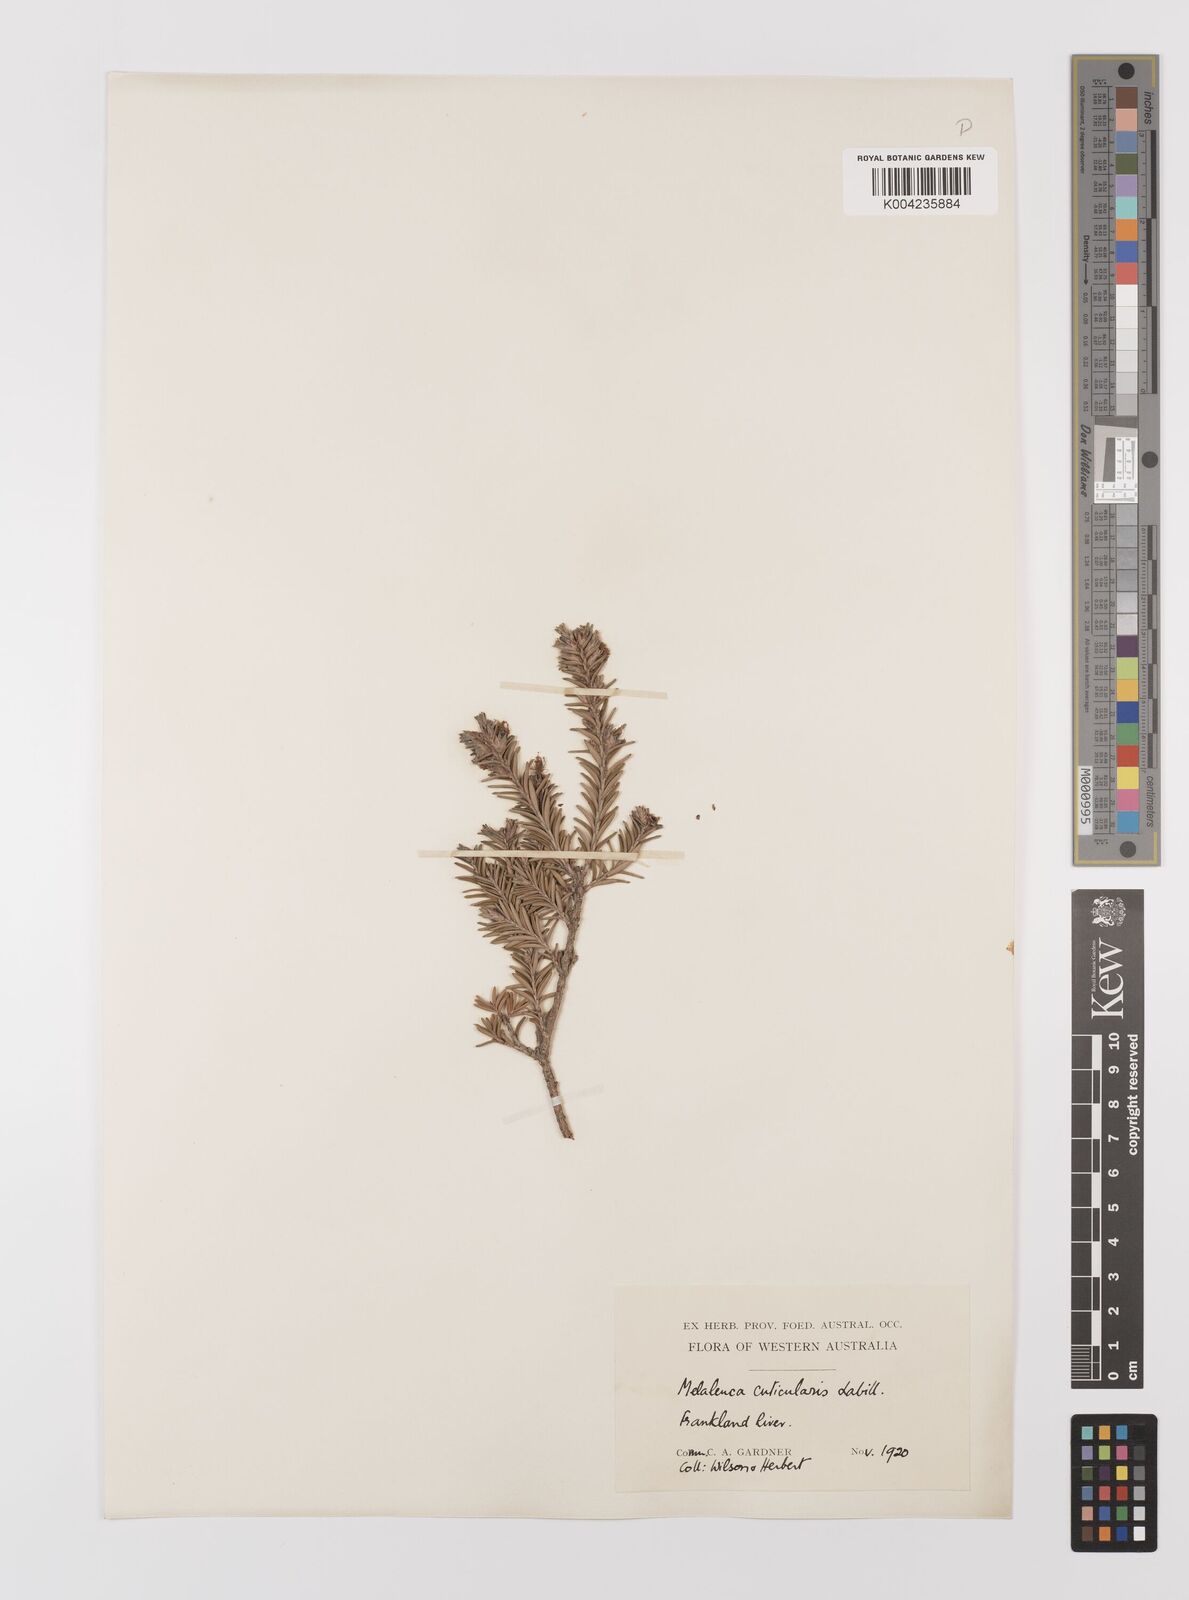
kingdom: Plantae
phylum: Tracheophyta
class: Magnoliopsida
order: Myrtales
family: Myrtaceae
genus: Melaleuca
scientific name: Melaleuca cuticularis
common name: Saltwater paperbark
